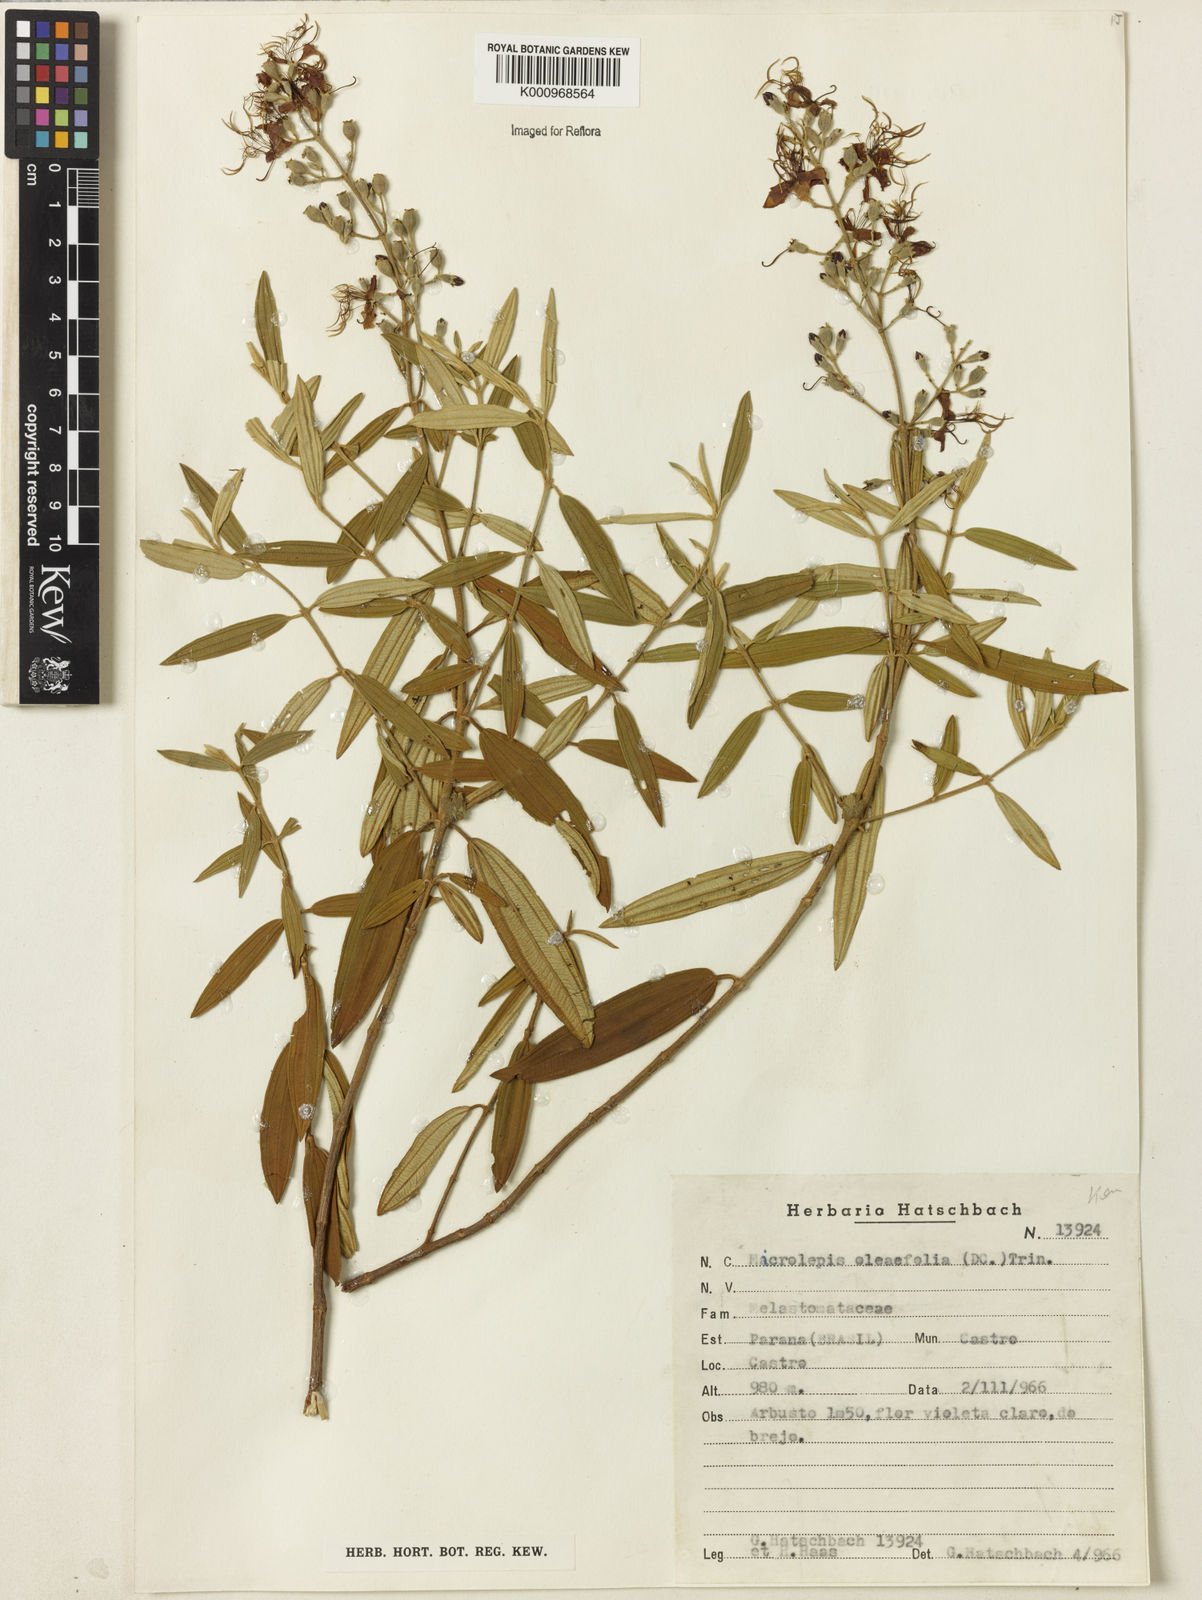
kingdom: Plantae
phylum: Tracheophyta
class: Magnoliopsida
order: Myrtales
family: Melastomataceae
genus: Pleroma
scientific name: Pleroma oleifolia
